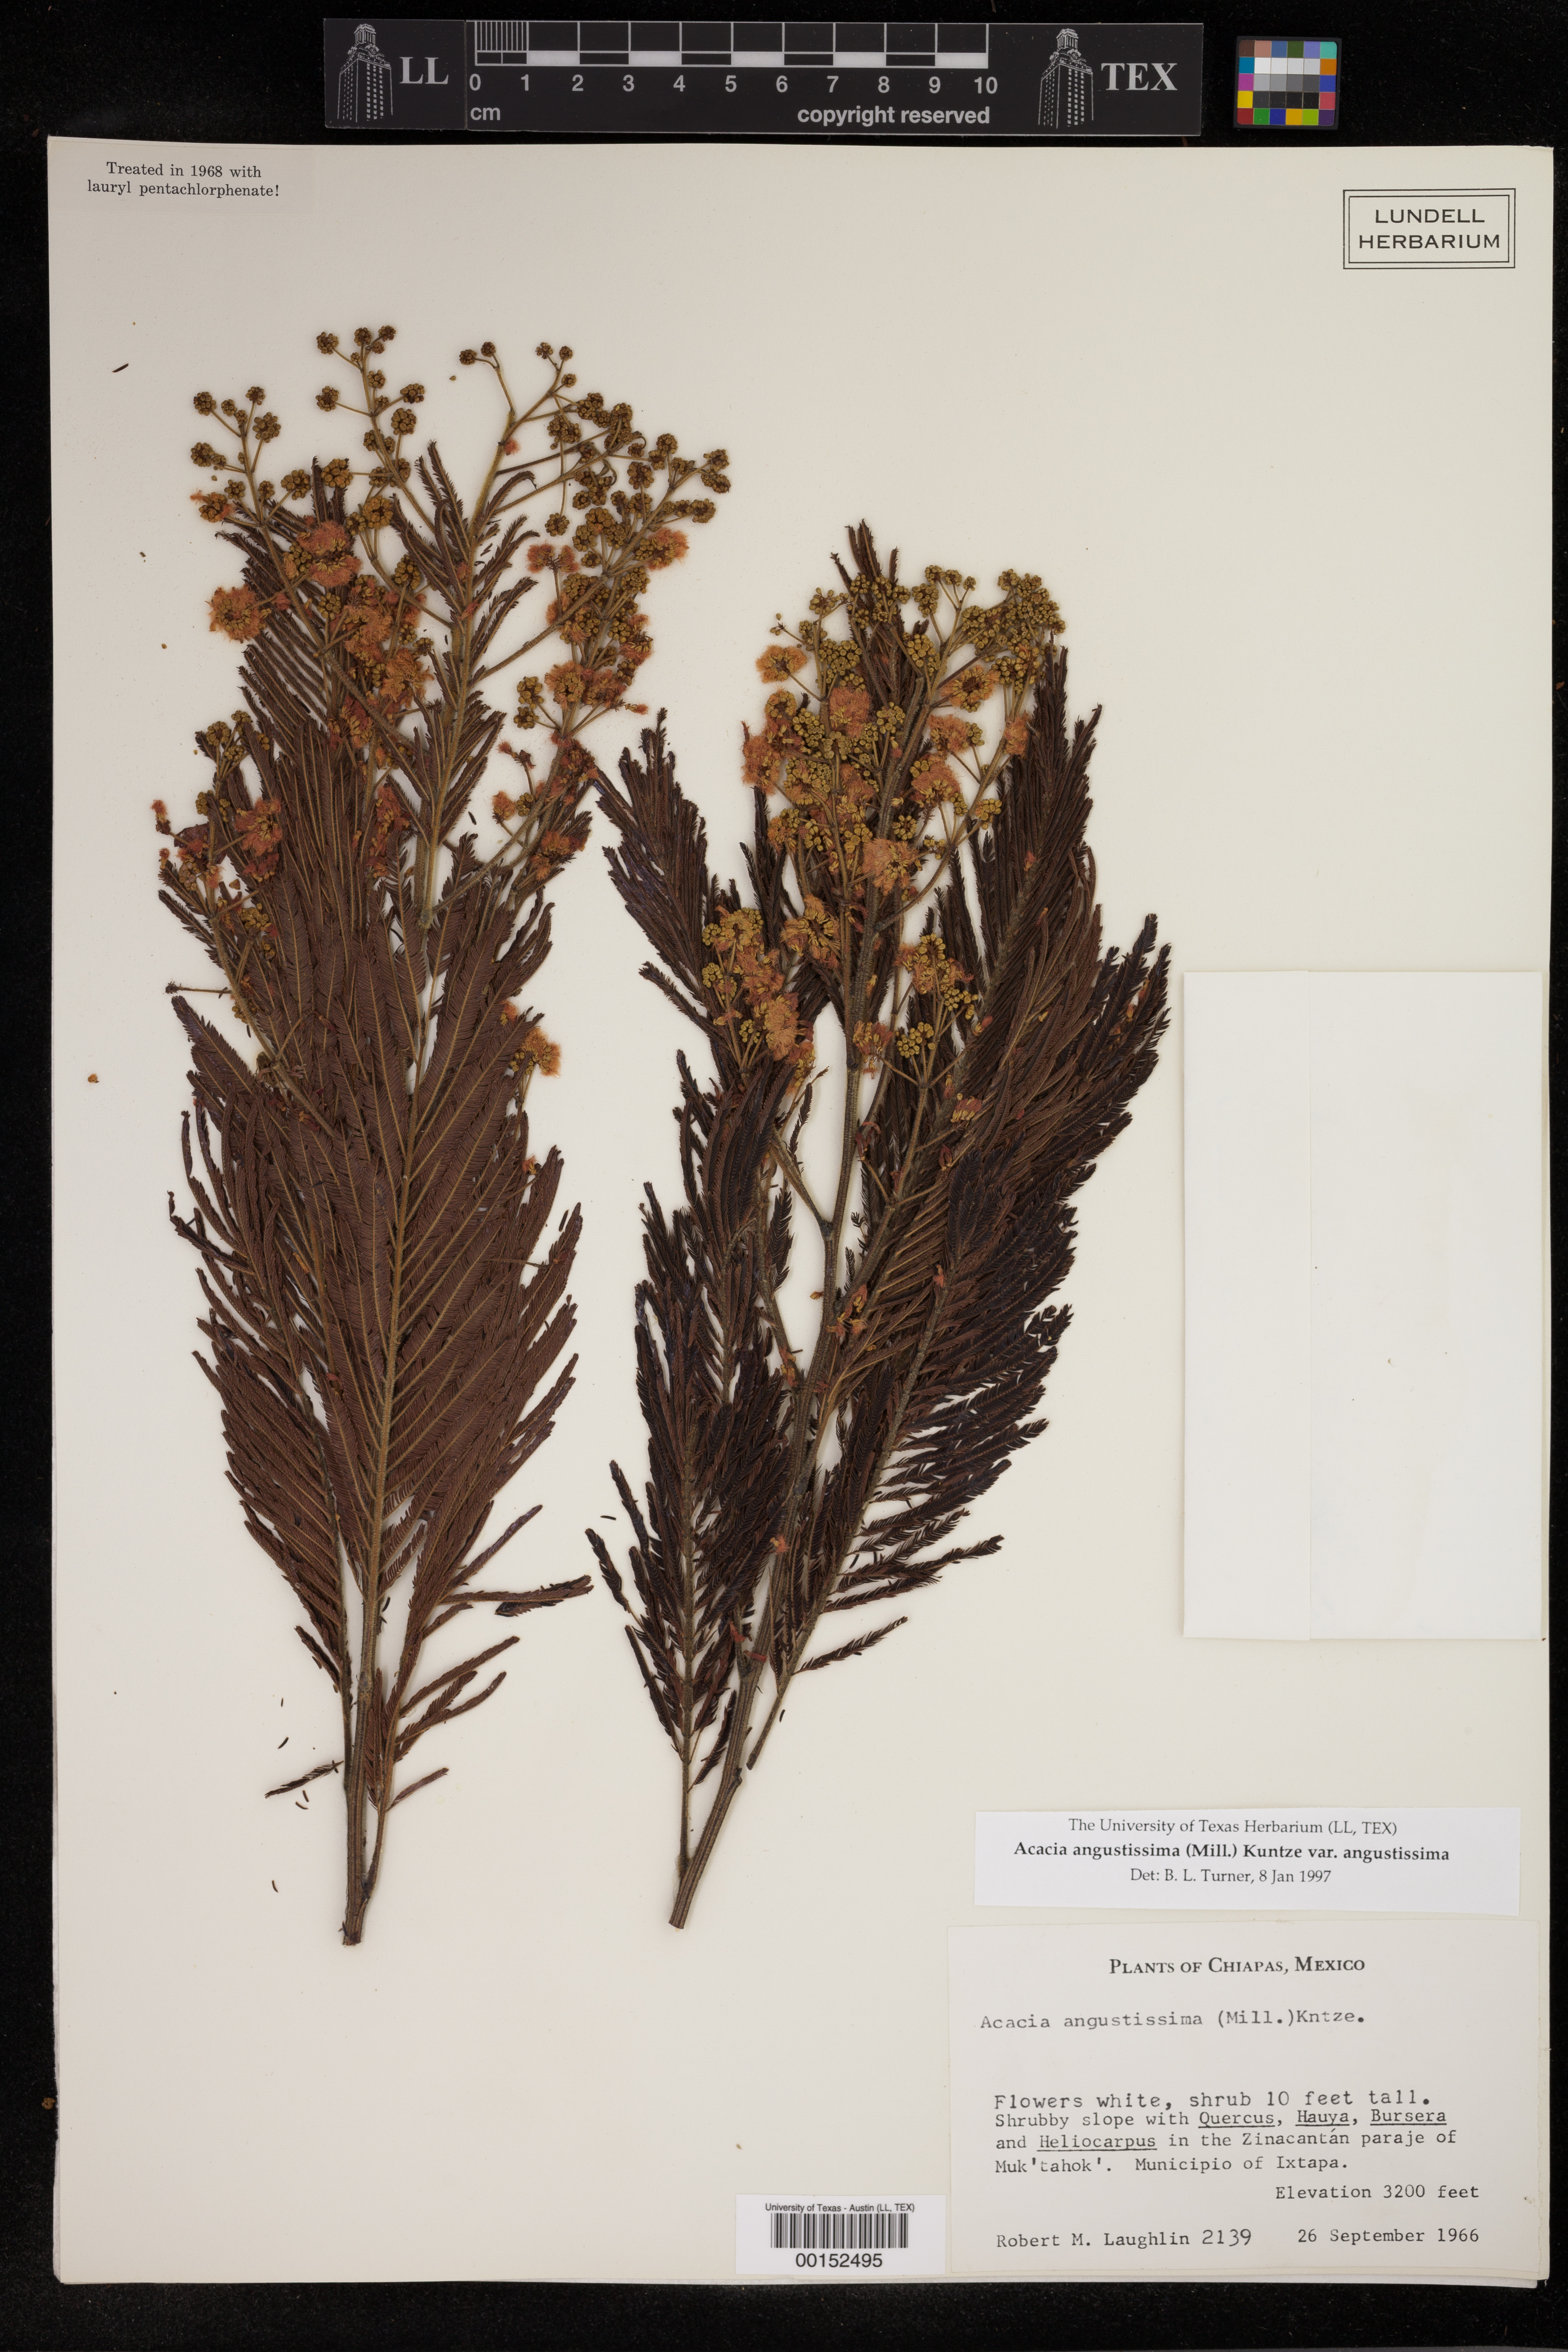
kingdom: Plantae
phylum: Tracheophyta
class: Magnoliopsida
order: Fabales
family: Fabaceae
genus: Acaciella
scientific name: Acaciella angustissima
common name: Prairie acacia
